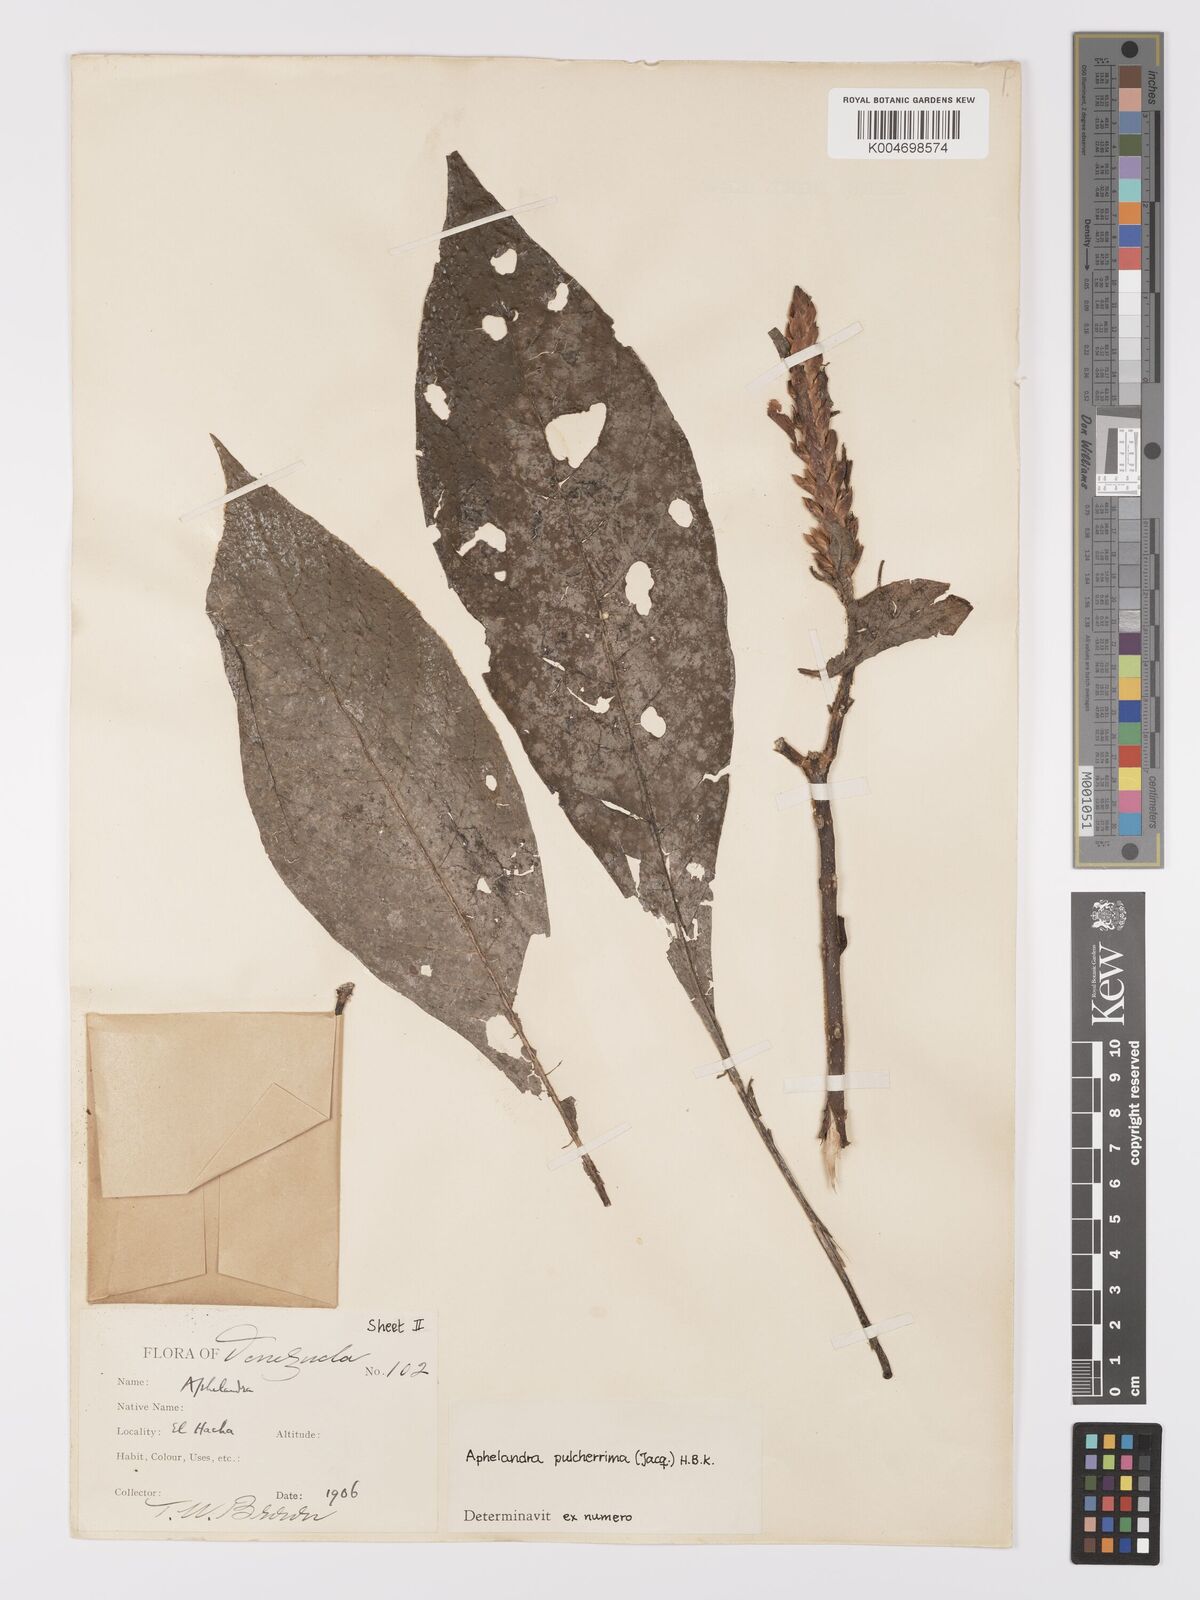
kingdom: Plantae
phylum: Tracheophyta
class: Magnoliopsida
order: Lamiales
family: Acanthaceae
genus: Aphelandra
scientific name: Aphelandra glabrata
